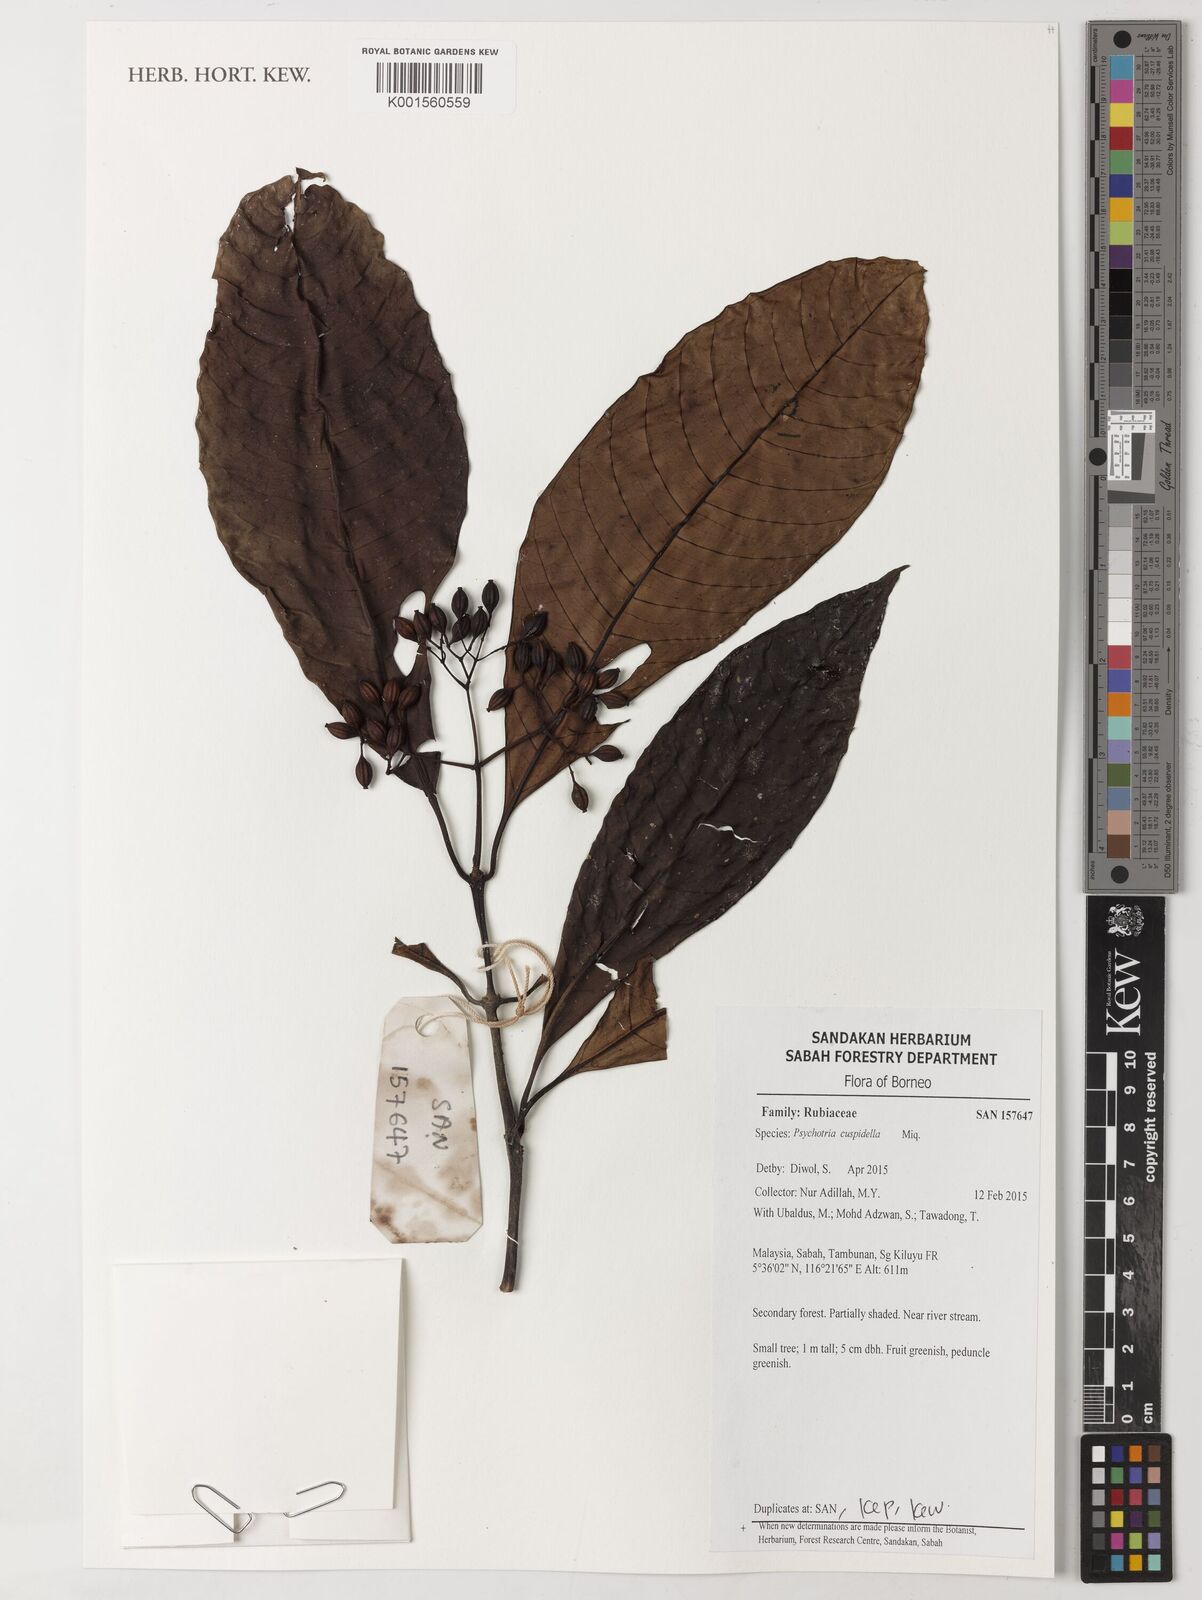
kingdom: Plantae
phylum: Tracheophyta
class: Magnoliopsida
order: Gentianales
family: Rubiaceae
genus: Psychotria
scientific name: Psychotria cuspidella
